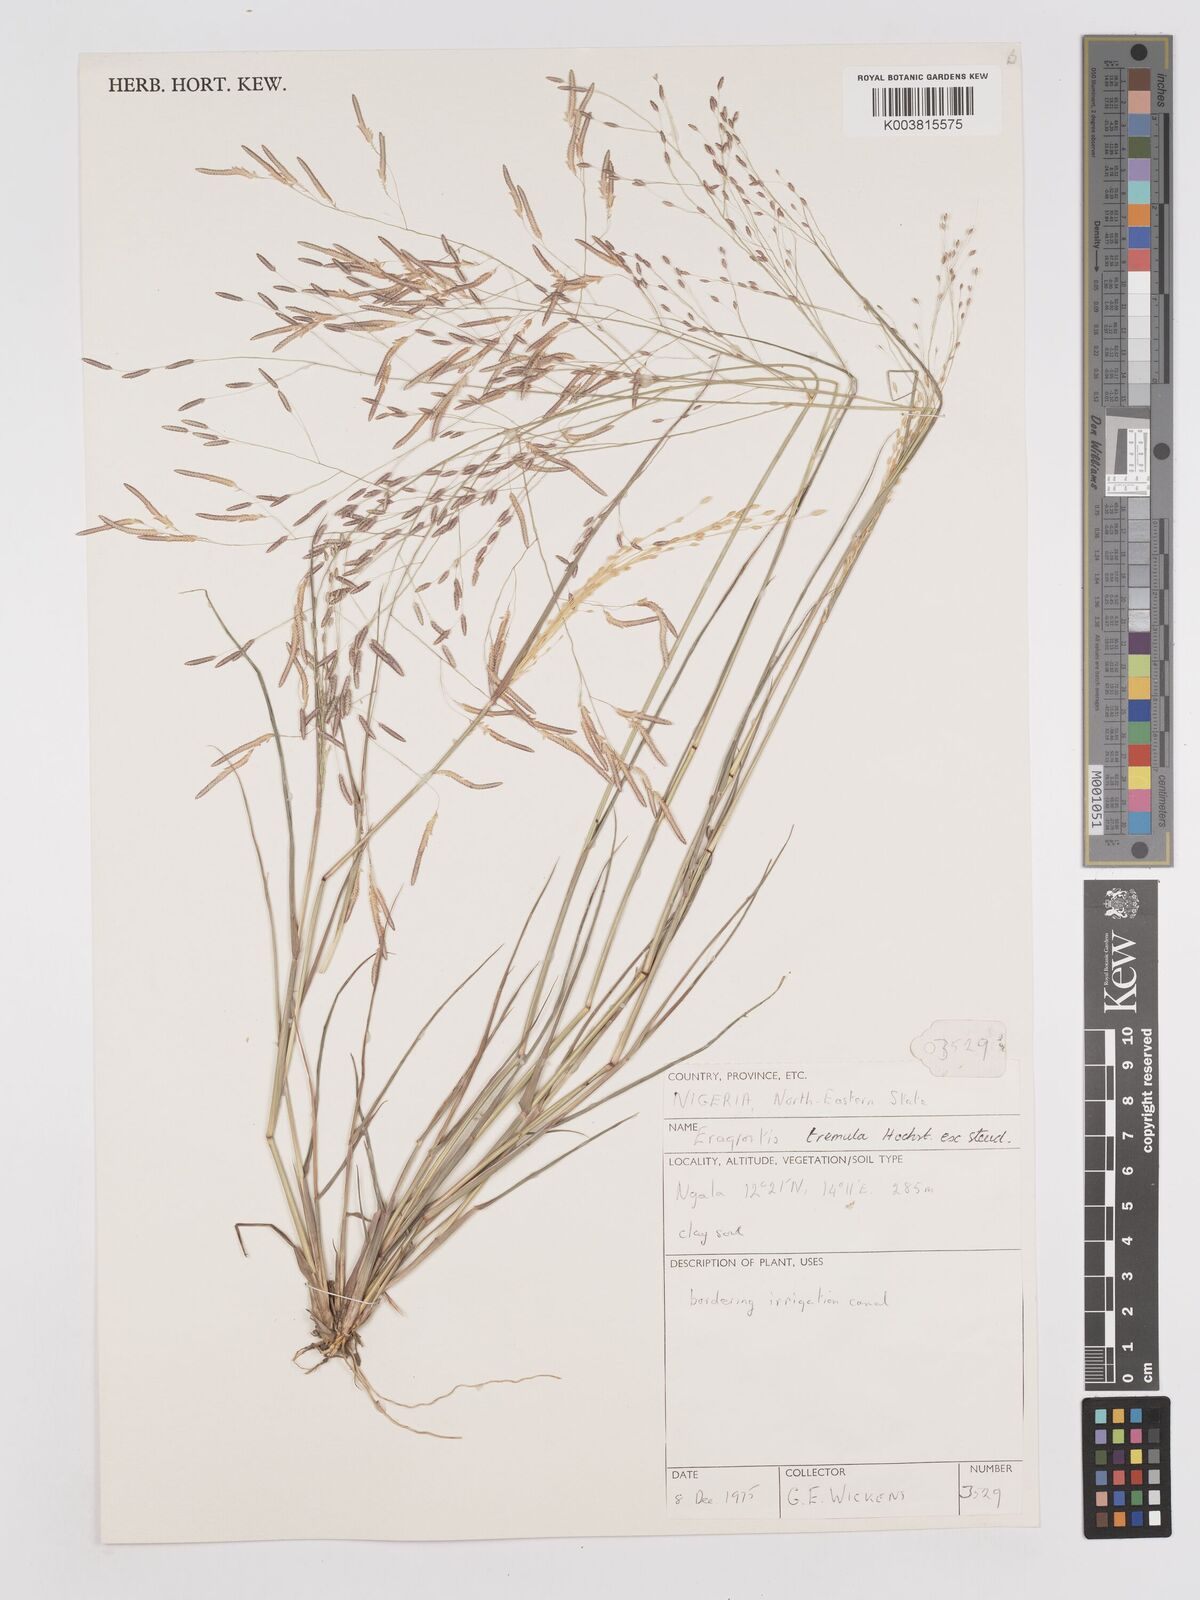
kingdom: Plantae
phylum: Tracheophyta
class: Liliopsida
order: Poales
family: Poaceae
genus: Eragrostis
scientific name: Eragrostis tremula
